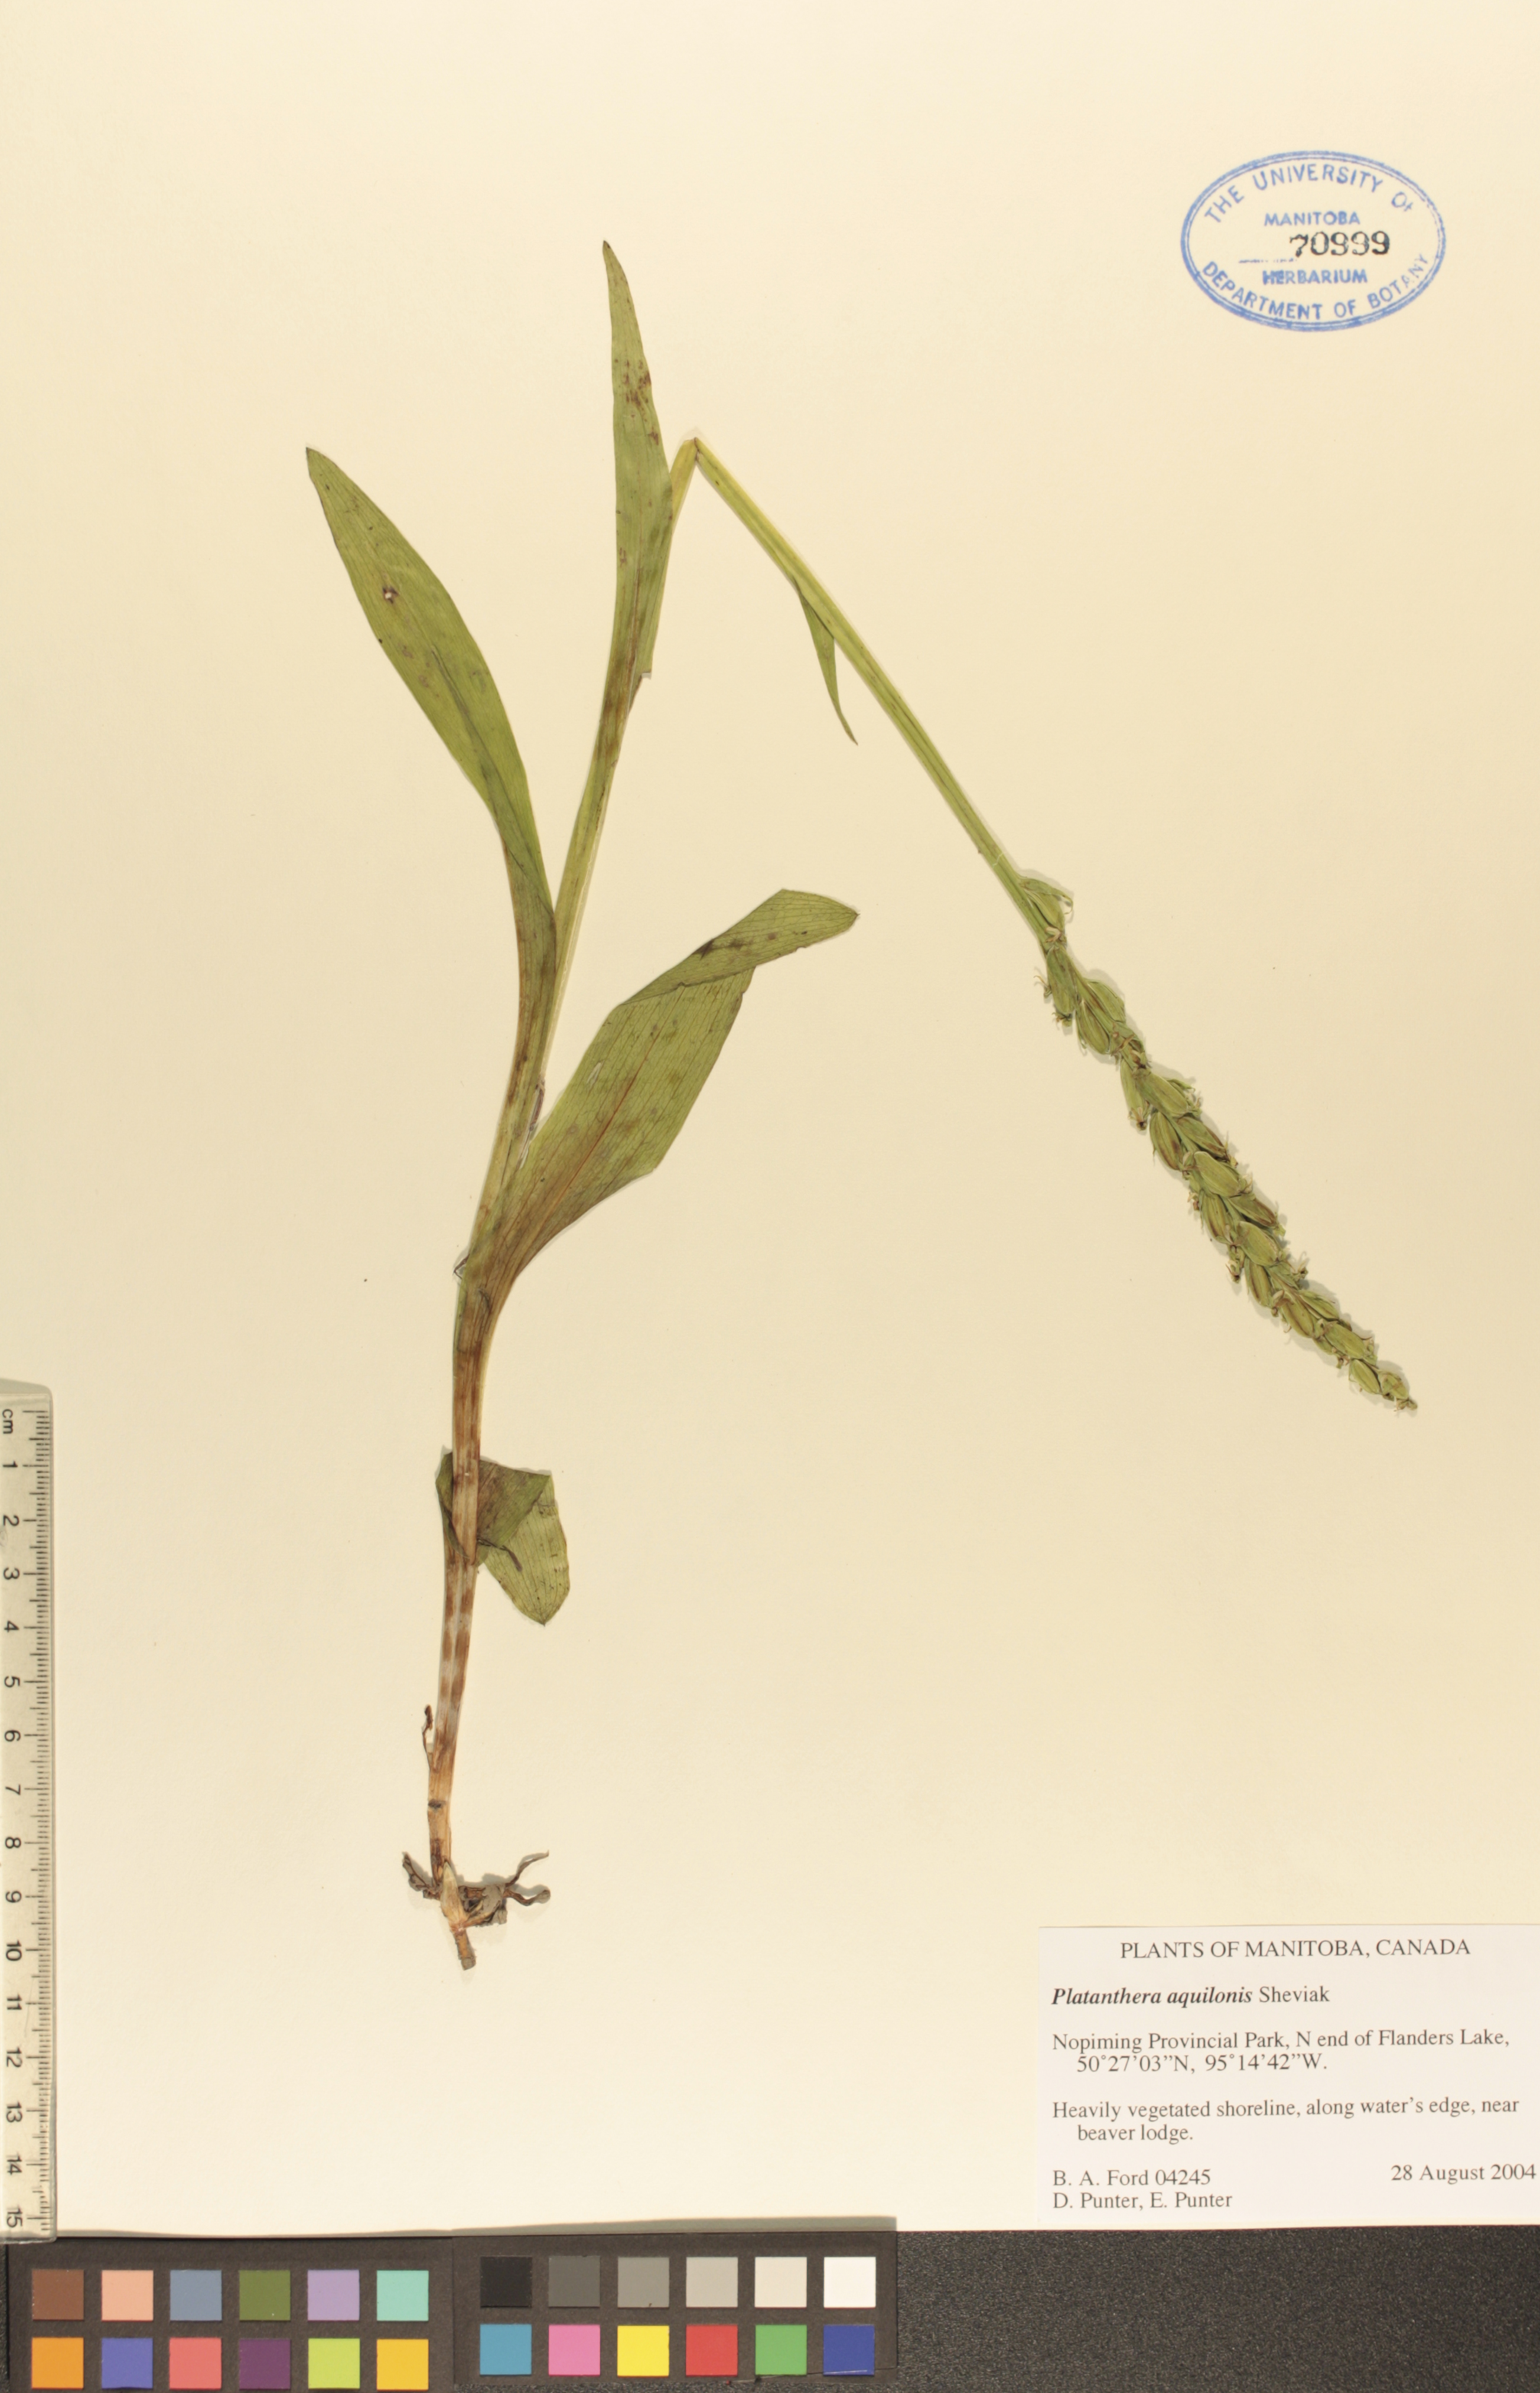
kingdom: Plantae
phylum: Tracheophyta
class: Liliopsida
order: Asparagales
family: Orchidaceae
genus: Platanthera
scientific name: Platanthera aquilonis
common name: Northern green orchid
